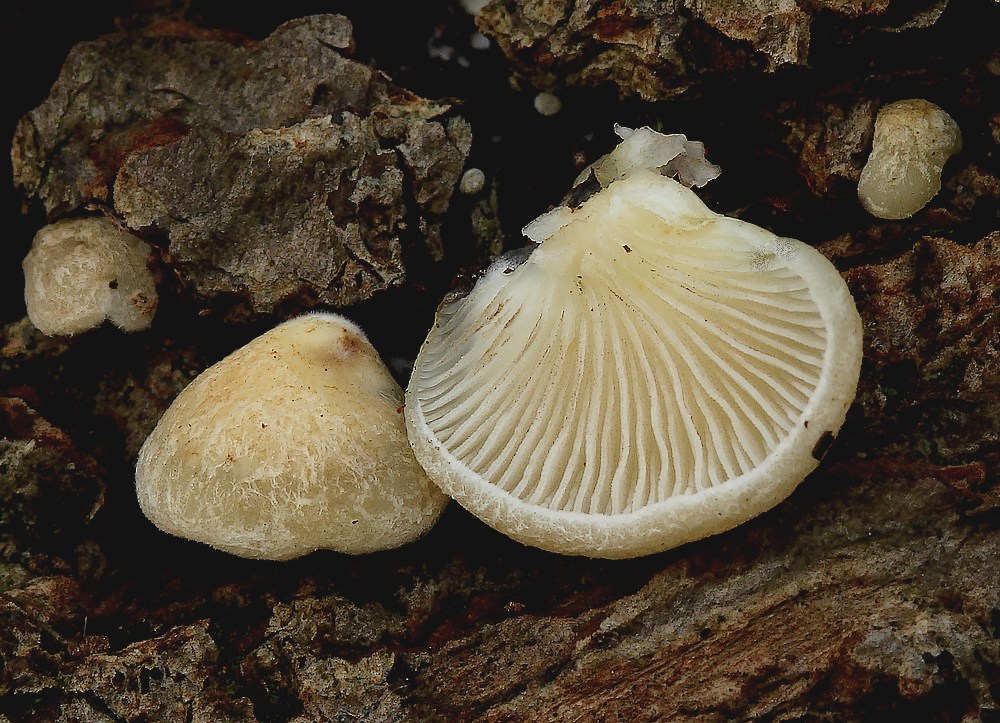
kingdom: Fungi
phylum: Basidiomycota
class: Agaricomycetes
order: Agaricales
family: Crepidotaceae
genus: Crepidotus
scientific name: Crepidotus calolepis
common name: småskællet muslingesvamp
